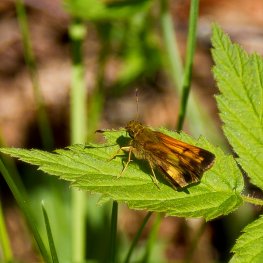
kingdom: Animalia
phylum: Arthropoda
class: Insecta
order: Lepidoptera
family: Hesperiidae
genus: Lon
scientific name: Lon hobomok
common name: Hobomok Skipper
